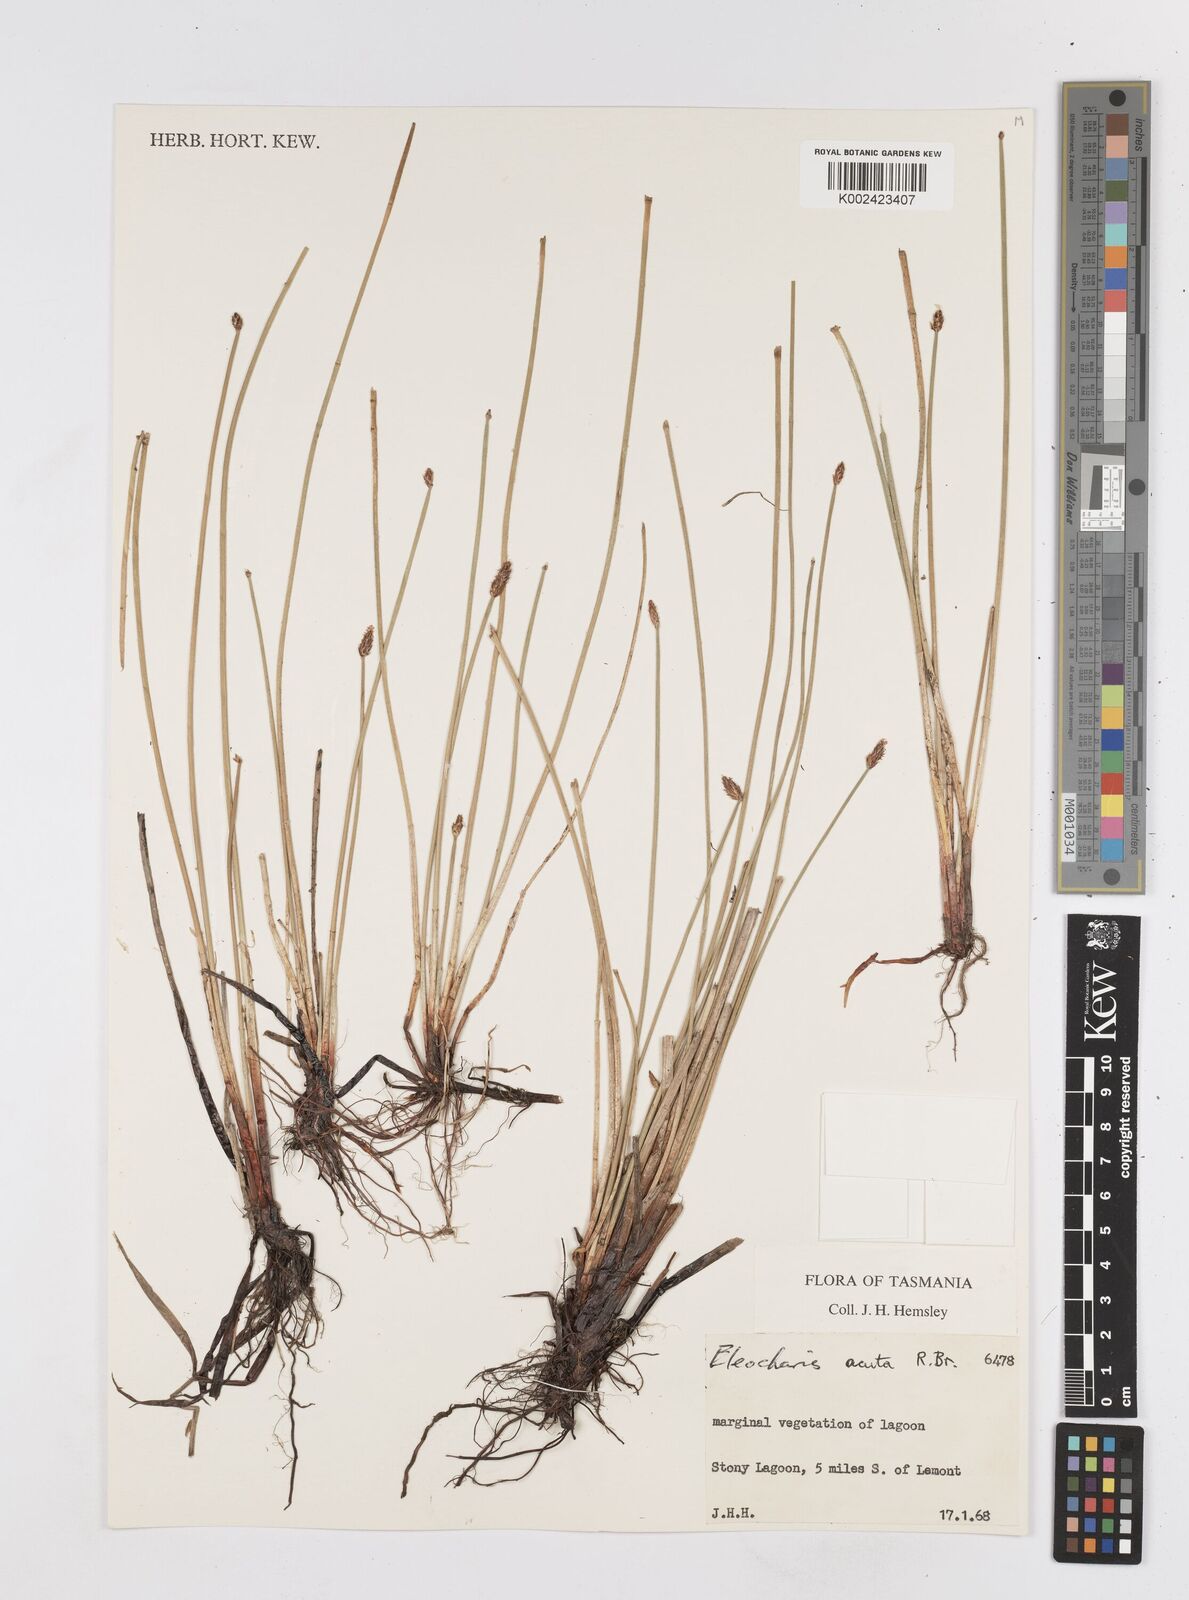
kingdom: Plantae
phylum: Tracheophyta
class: Liliopsida
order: Poales
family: Cyperaceae
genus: Eleocharis
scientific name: Eleocharis acuta
